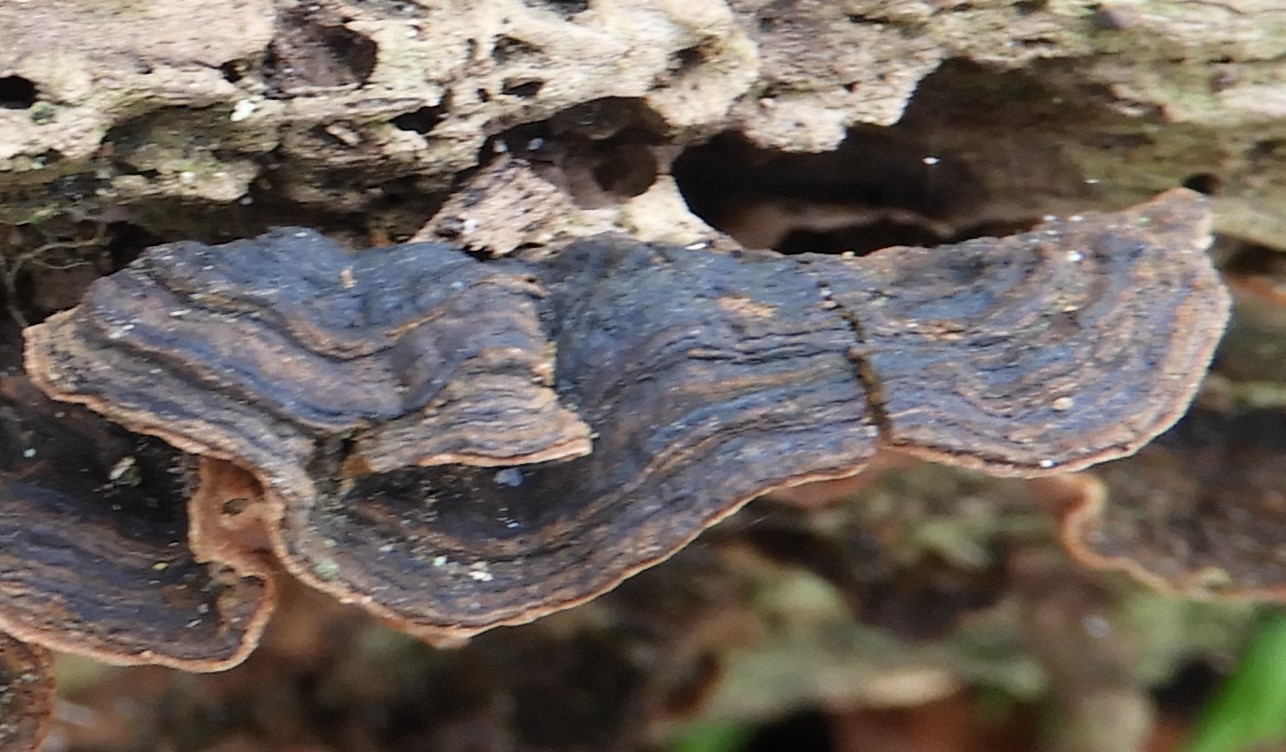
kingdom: Fungi
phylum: Basidiomycota
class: Agaricomycetes
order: Hymenochaetales
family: Hymenochaetaceae
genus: Hymenochaete
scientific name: Hymenochaete rubiginosa
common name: stiv ruslædersvamp
